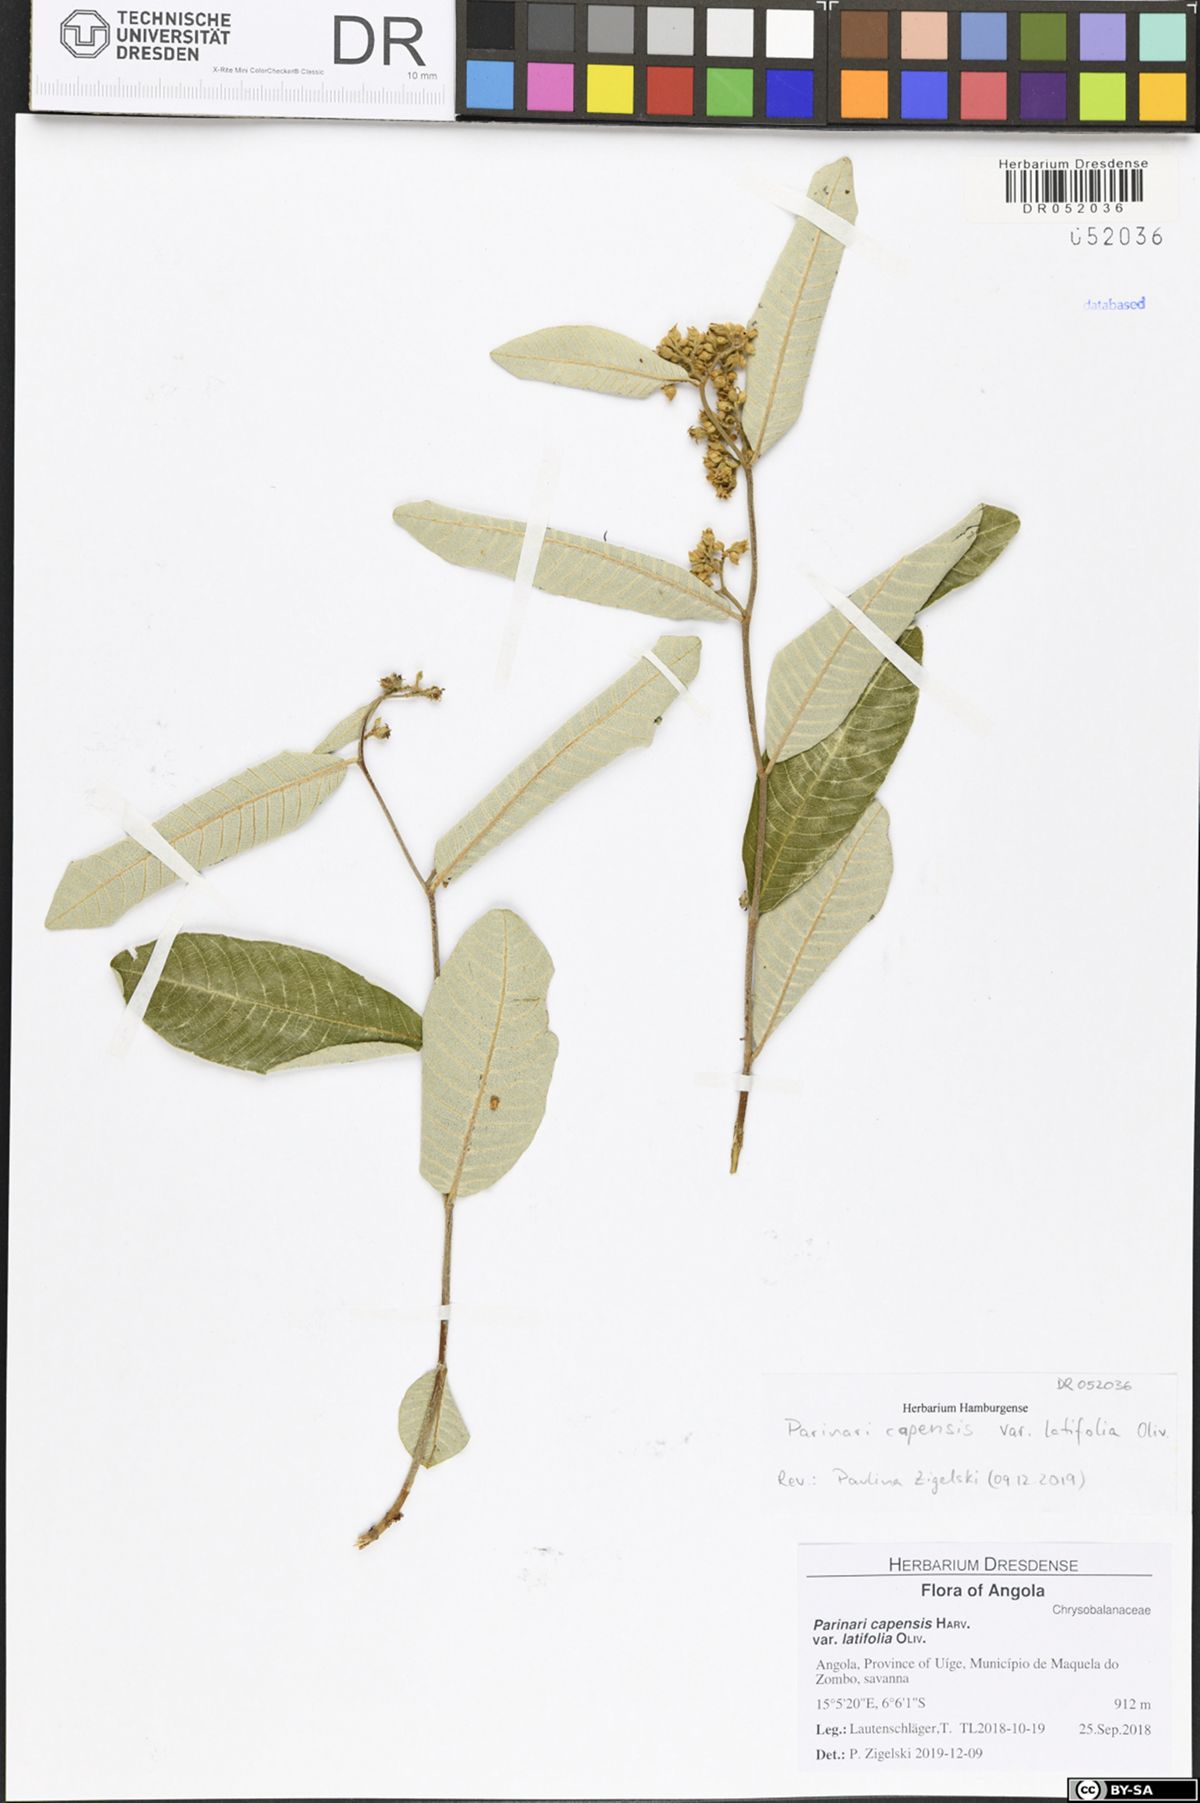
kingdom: Plantae
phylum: Tracheophyta
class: Magnoliopsida
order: Malpighiales
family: Chrysobalanaceae
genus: Parinari
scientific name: Parinari capensis
